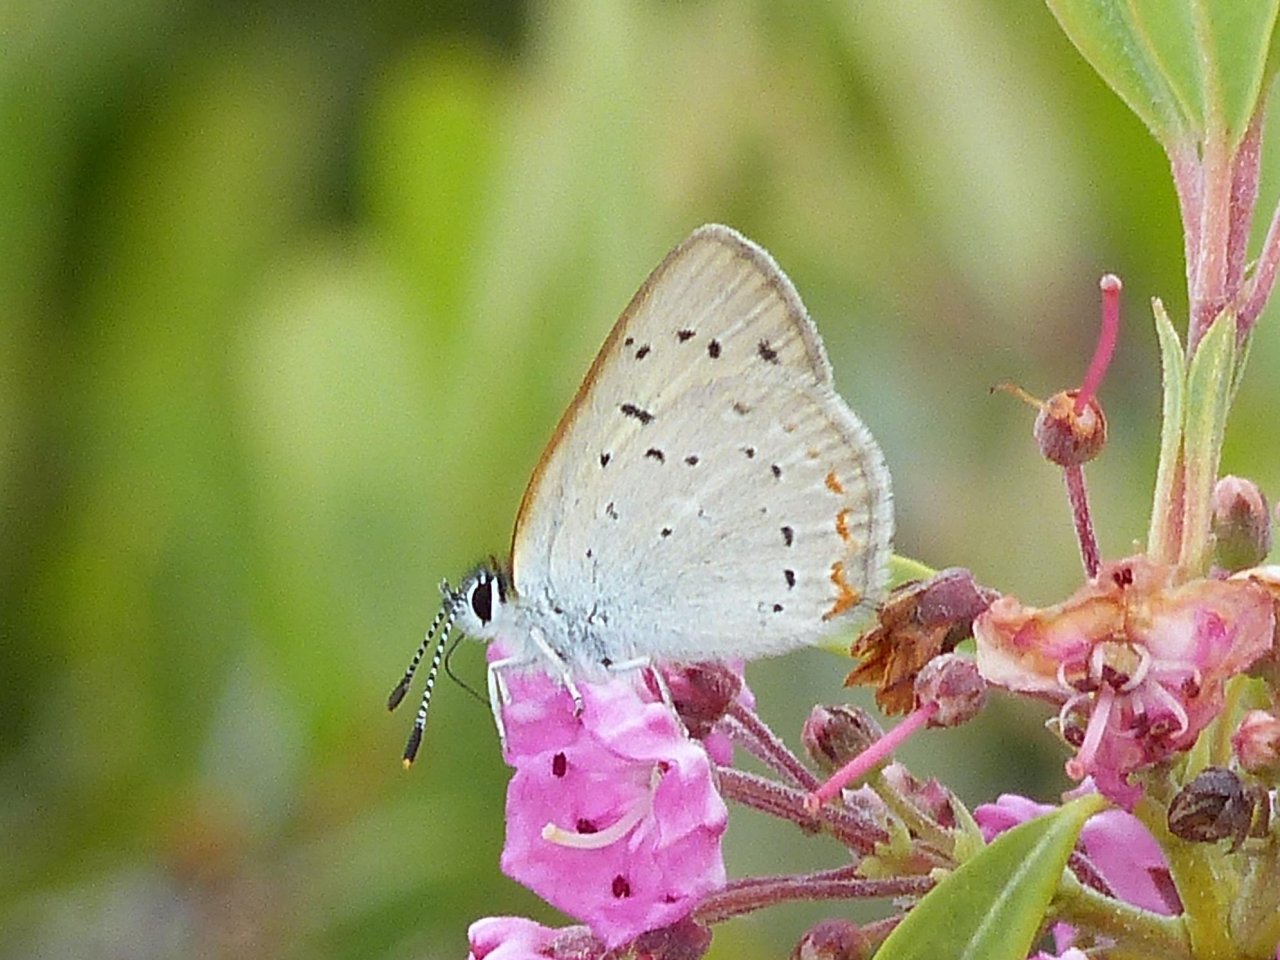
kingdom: Animalia
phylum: Arthropoda
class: Insecta
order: Lepidoptera
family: Sesiidae
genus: Sesia
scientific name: Sesia Lycaena epixanthe
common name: Bog Copper
